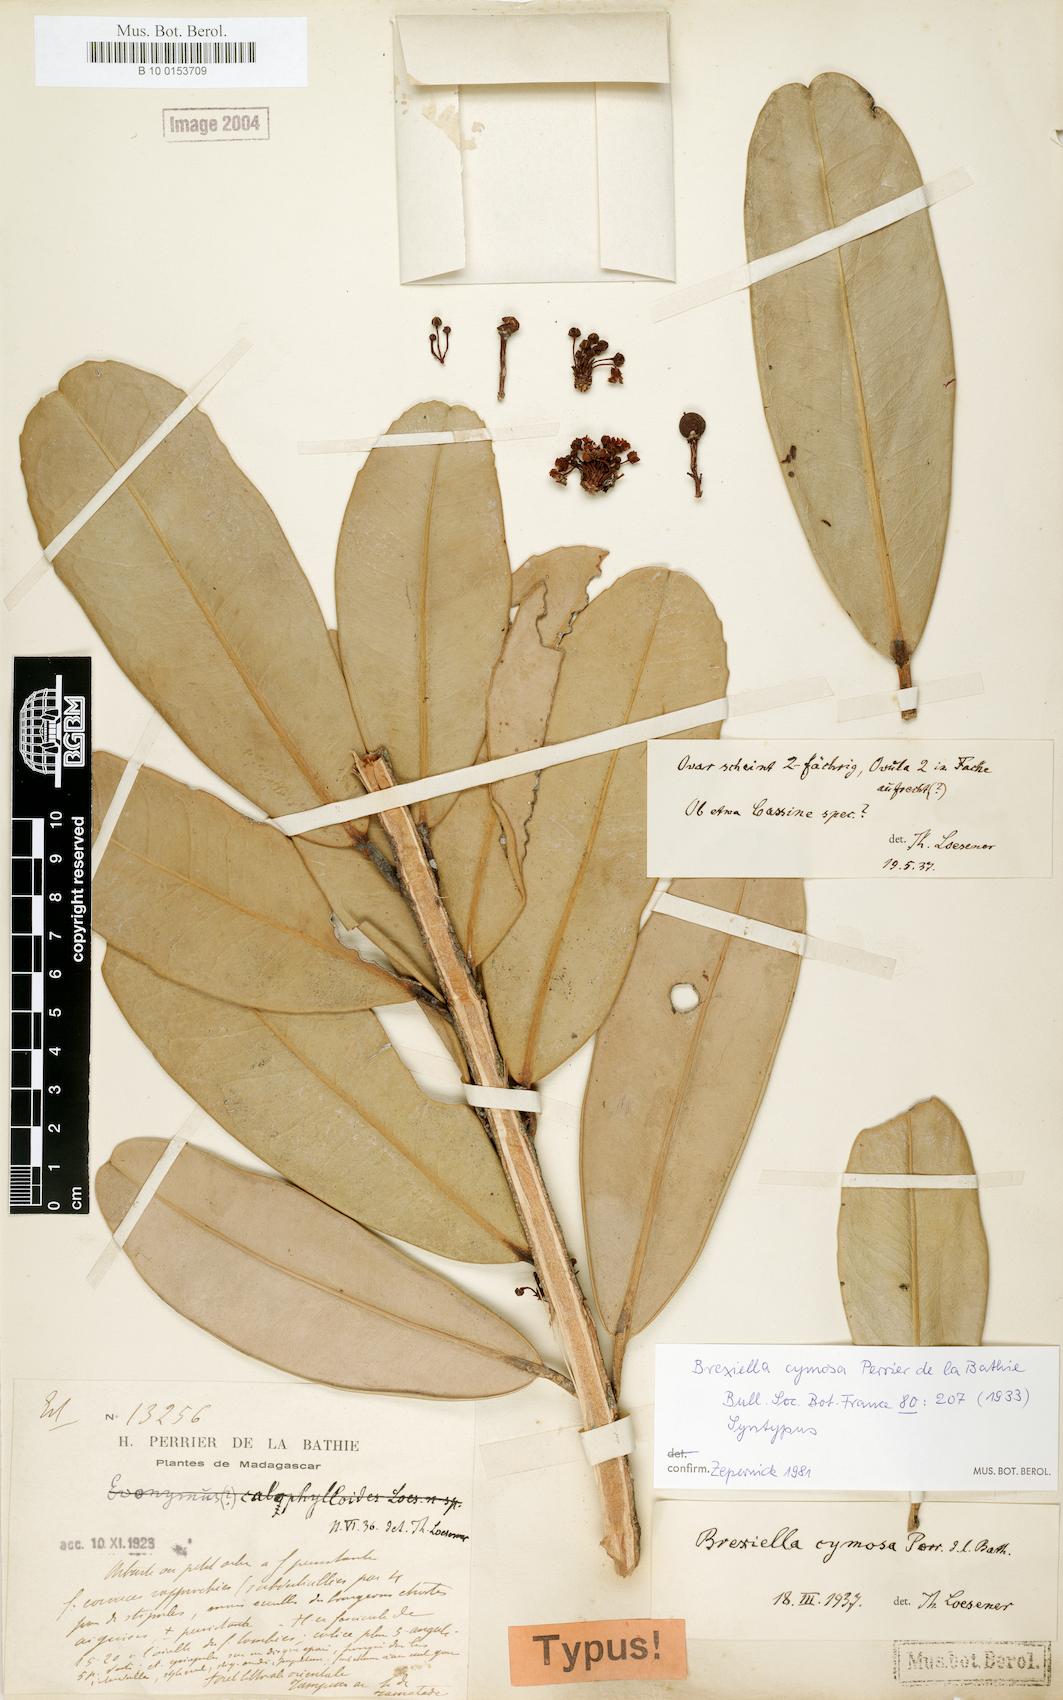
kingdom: Plantae
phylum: Tracheophyta
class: Magnoliopsida
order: Celastrales
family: Celastraceae
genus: Brexiella
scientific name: Brexiella cymosa
